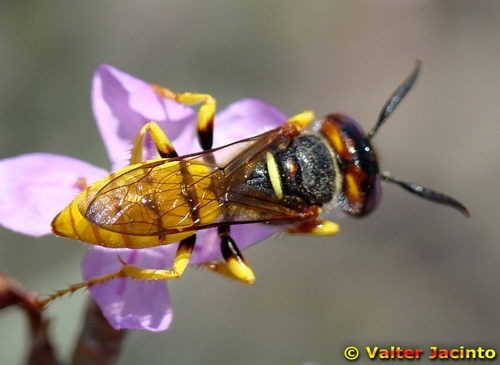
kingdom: Animalia
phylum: Arthropoda
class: Insecta
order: Hymenoptera
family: Crabronidae
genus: Philanthus
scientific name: Philanthus triangulum
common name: Bee wolf
